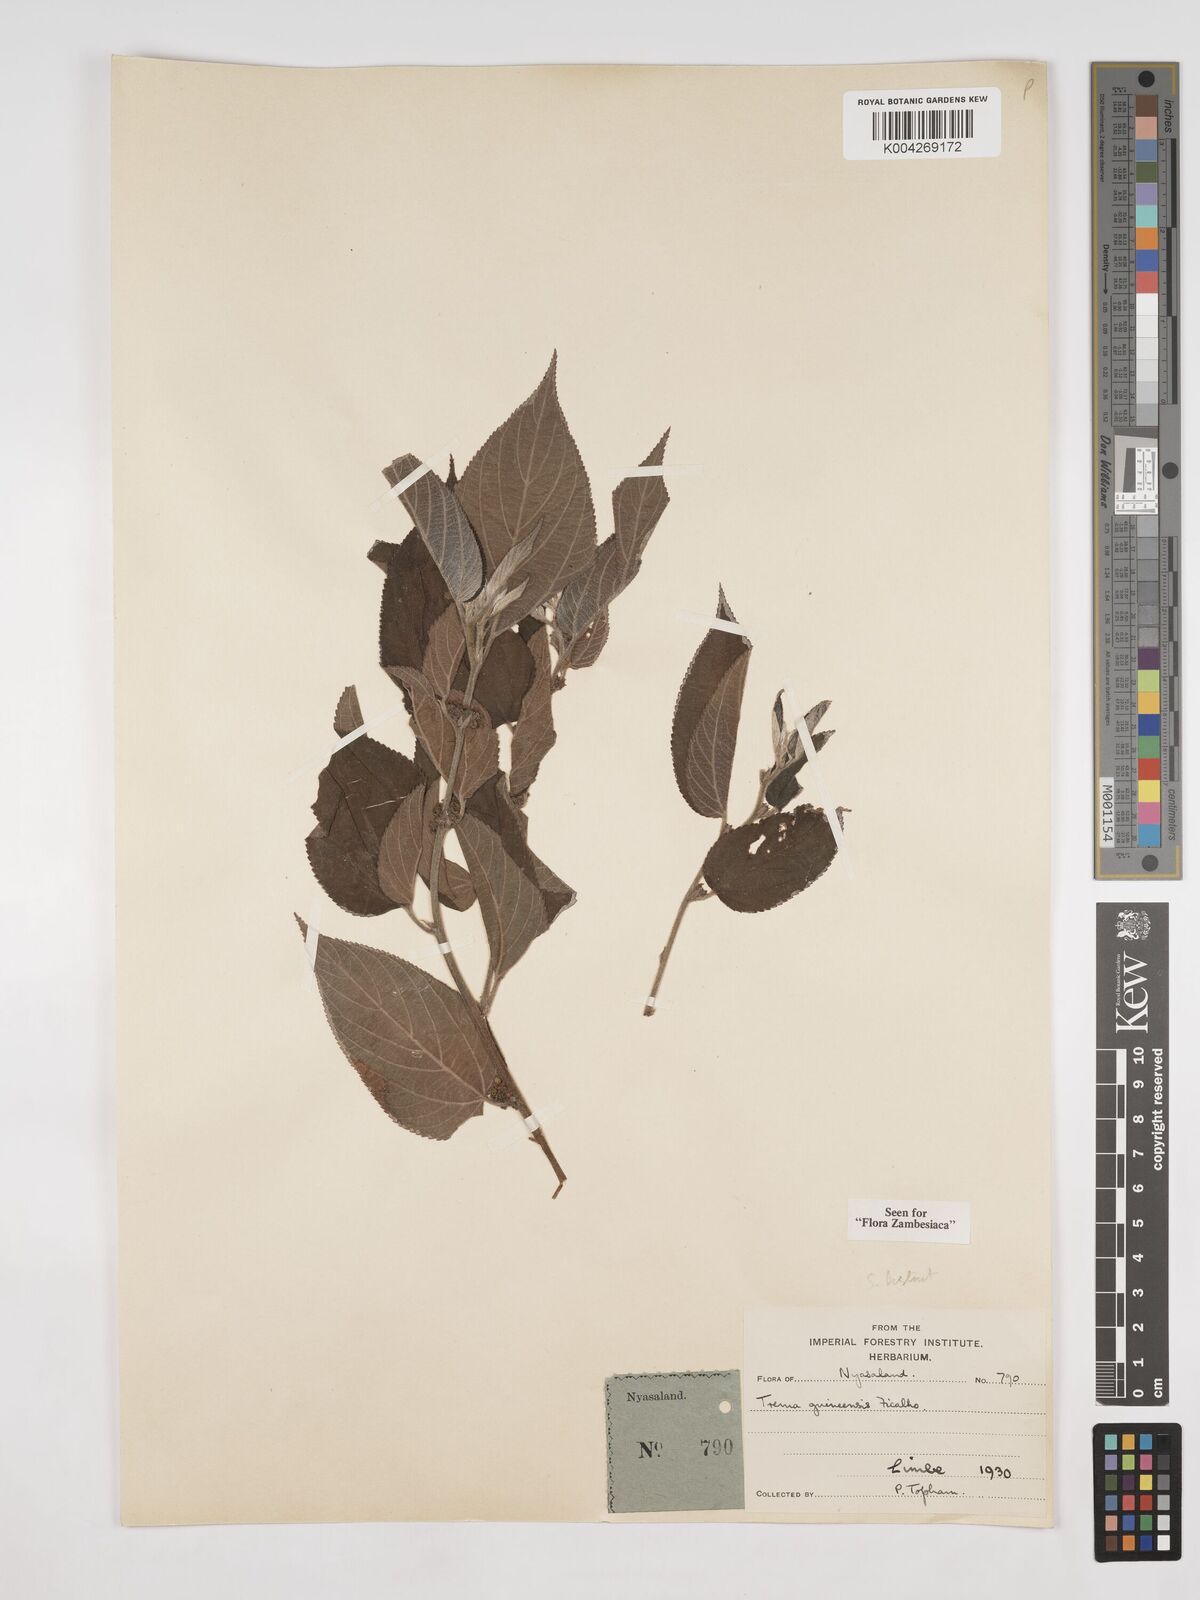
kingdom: Plantae
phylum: Tracheophyta
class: Magnoliopsida
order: Rosales
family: Cannabaceae
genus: Trema
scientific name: Trema orientale
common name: Indian charcoal tree
